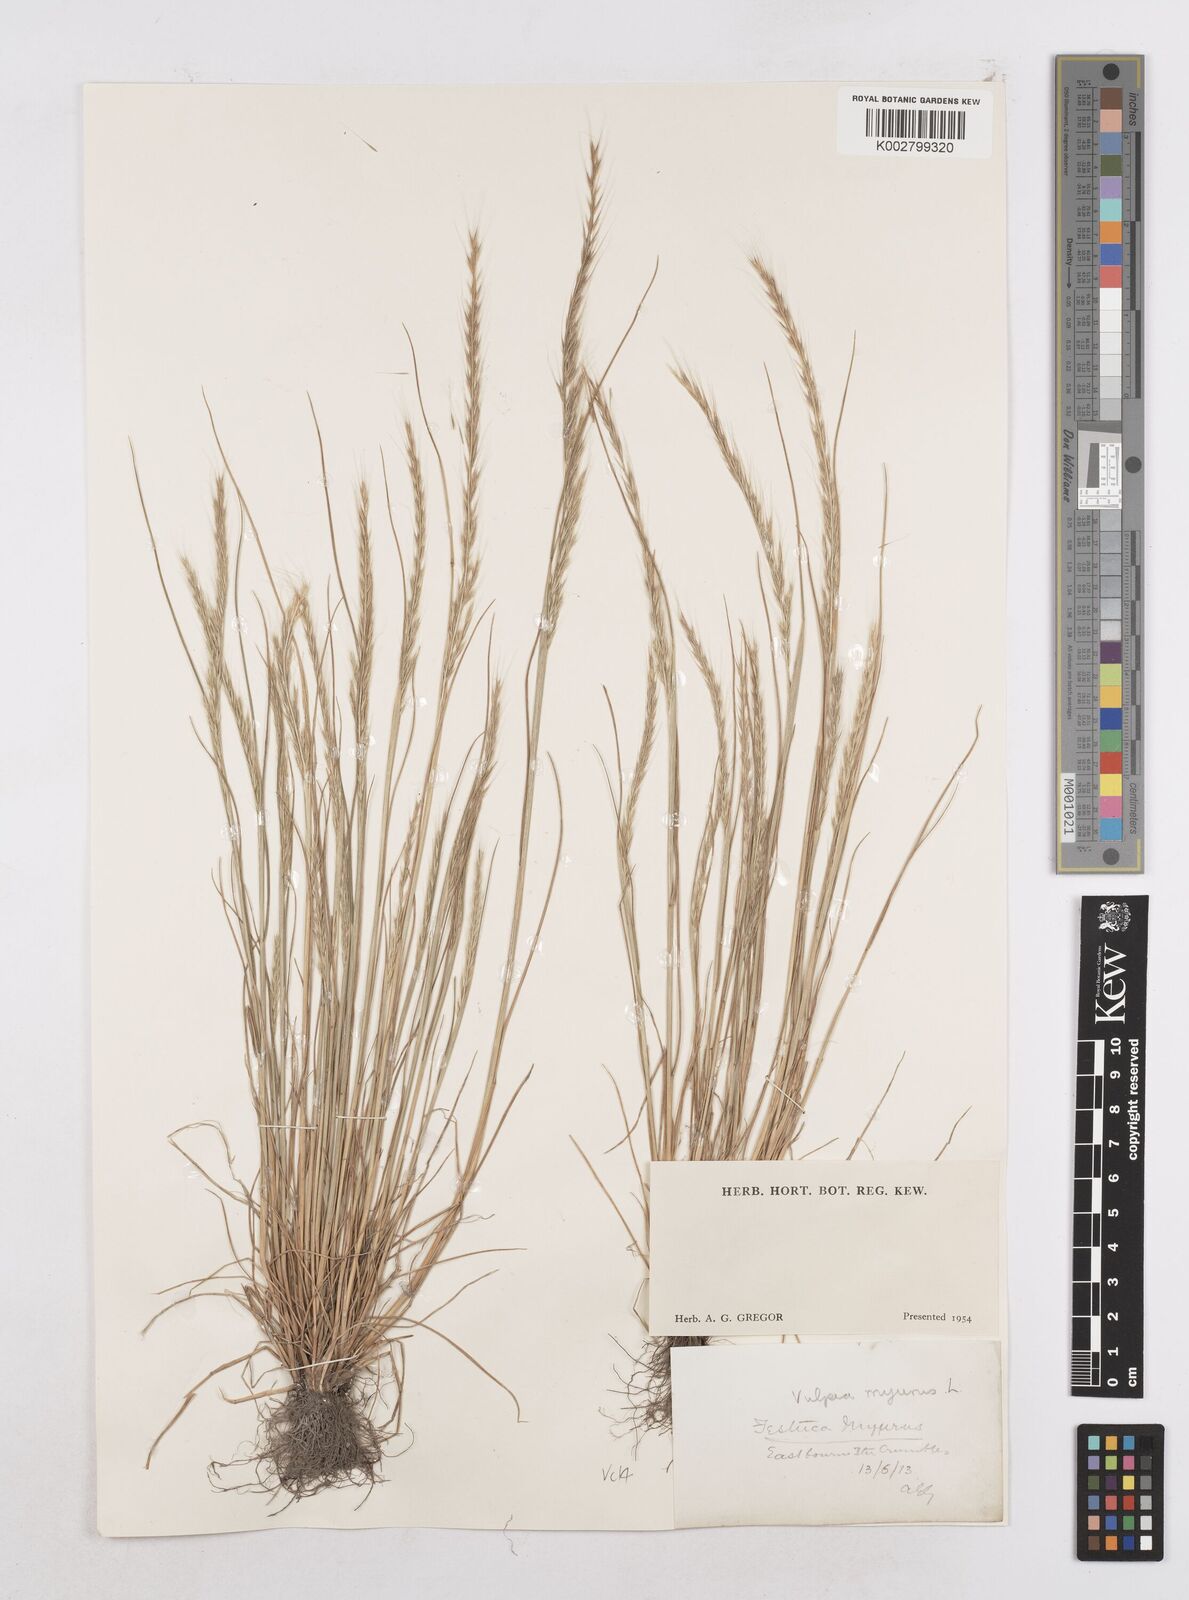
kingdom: Plantae
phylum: Tracheophyta
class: Liliopsida
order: Poales
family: Poaceae
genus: Festuca
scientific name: Festuca myuros
